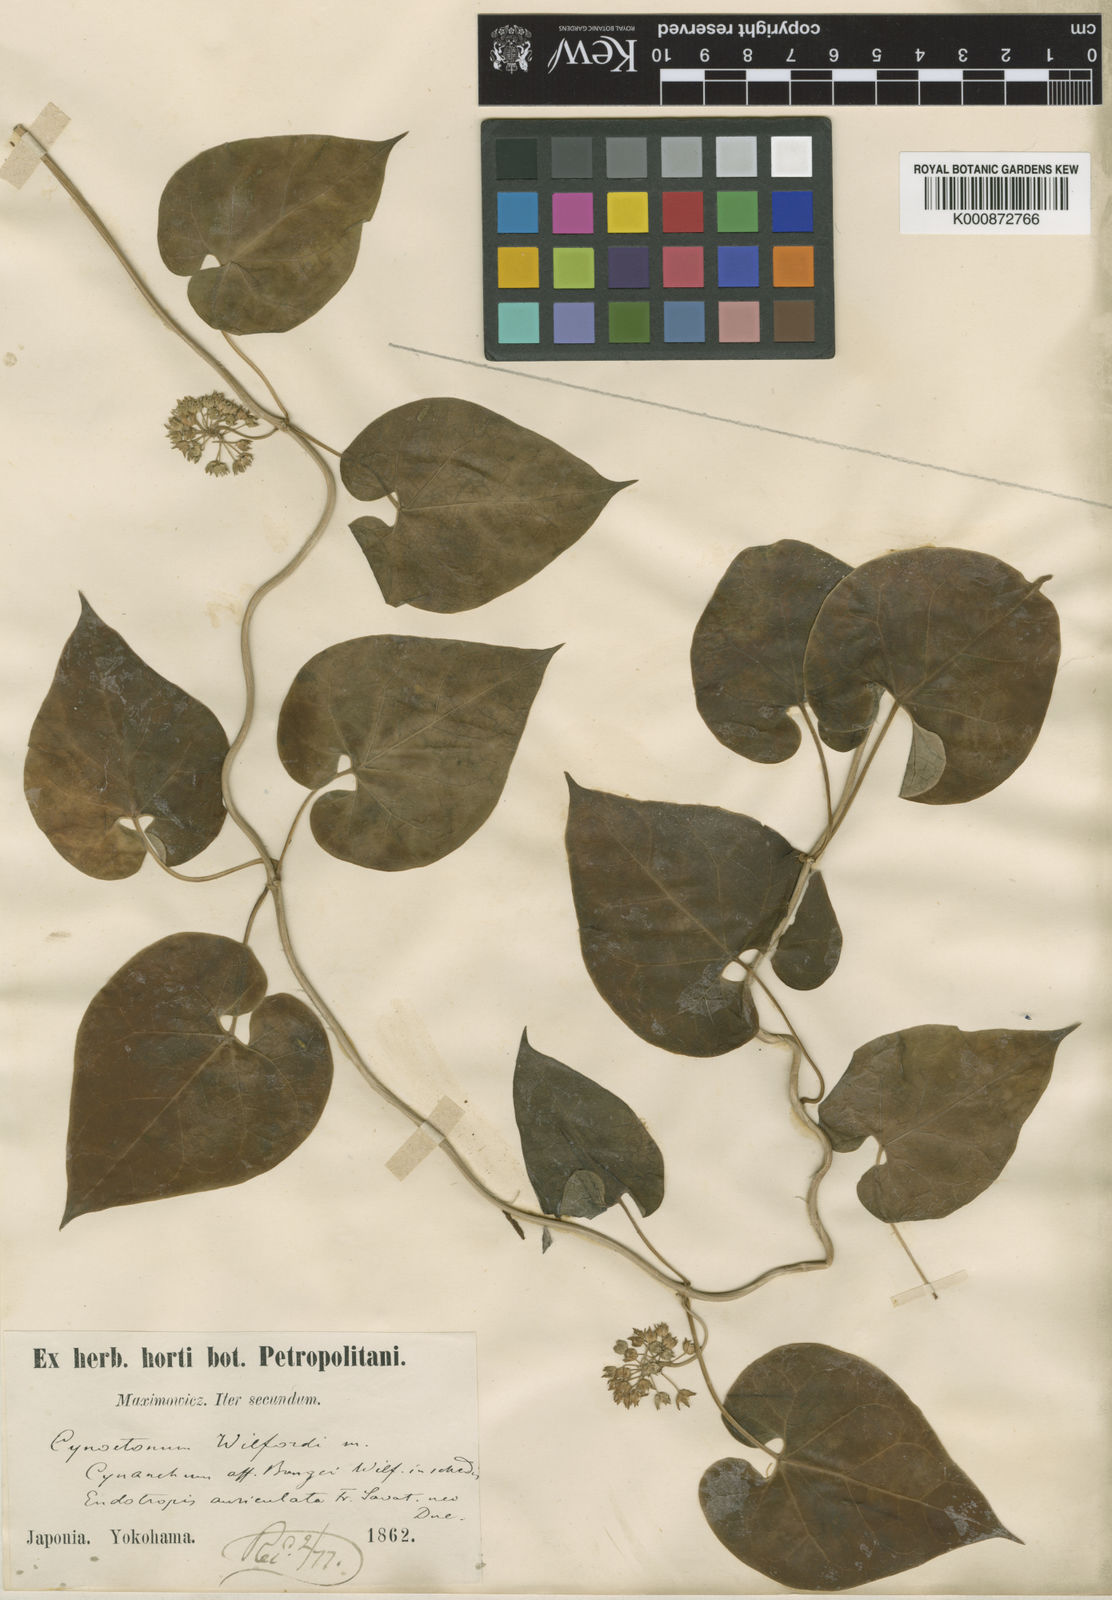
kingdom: Plantae
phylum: Tracheophyta
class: Magnoliopsida
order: Gentianales
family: Apocynaceae
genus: Cynanchum
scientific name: Cynanchum wilfordii
